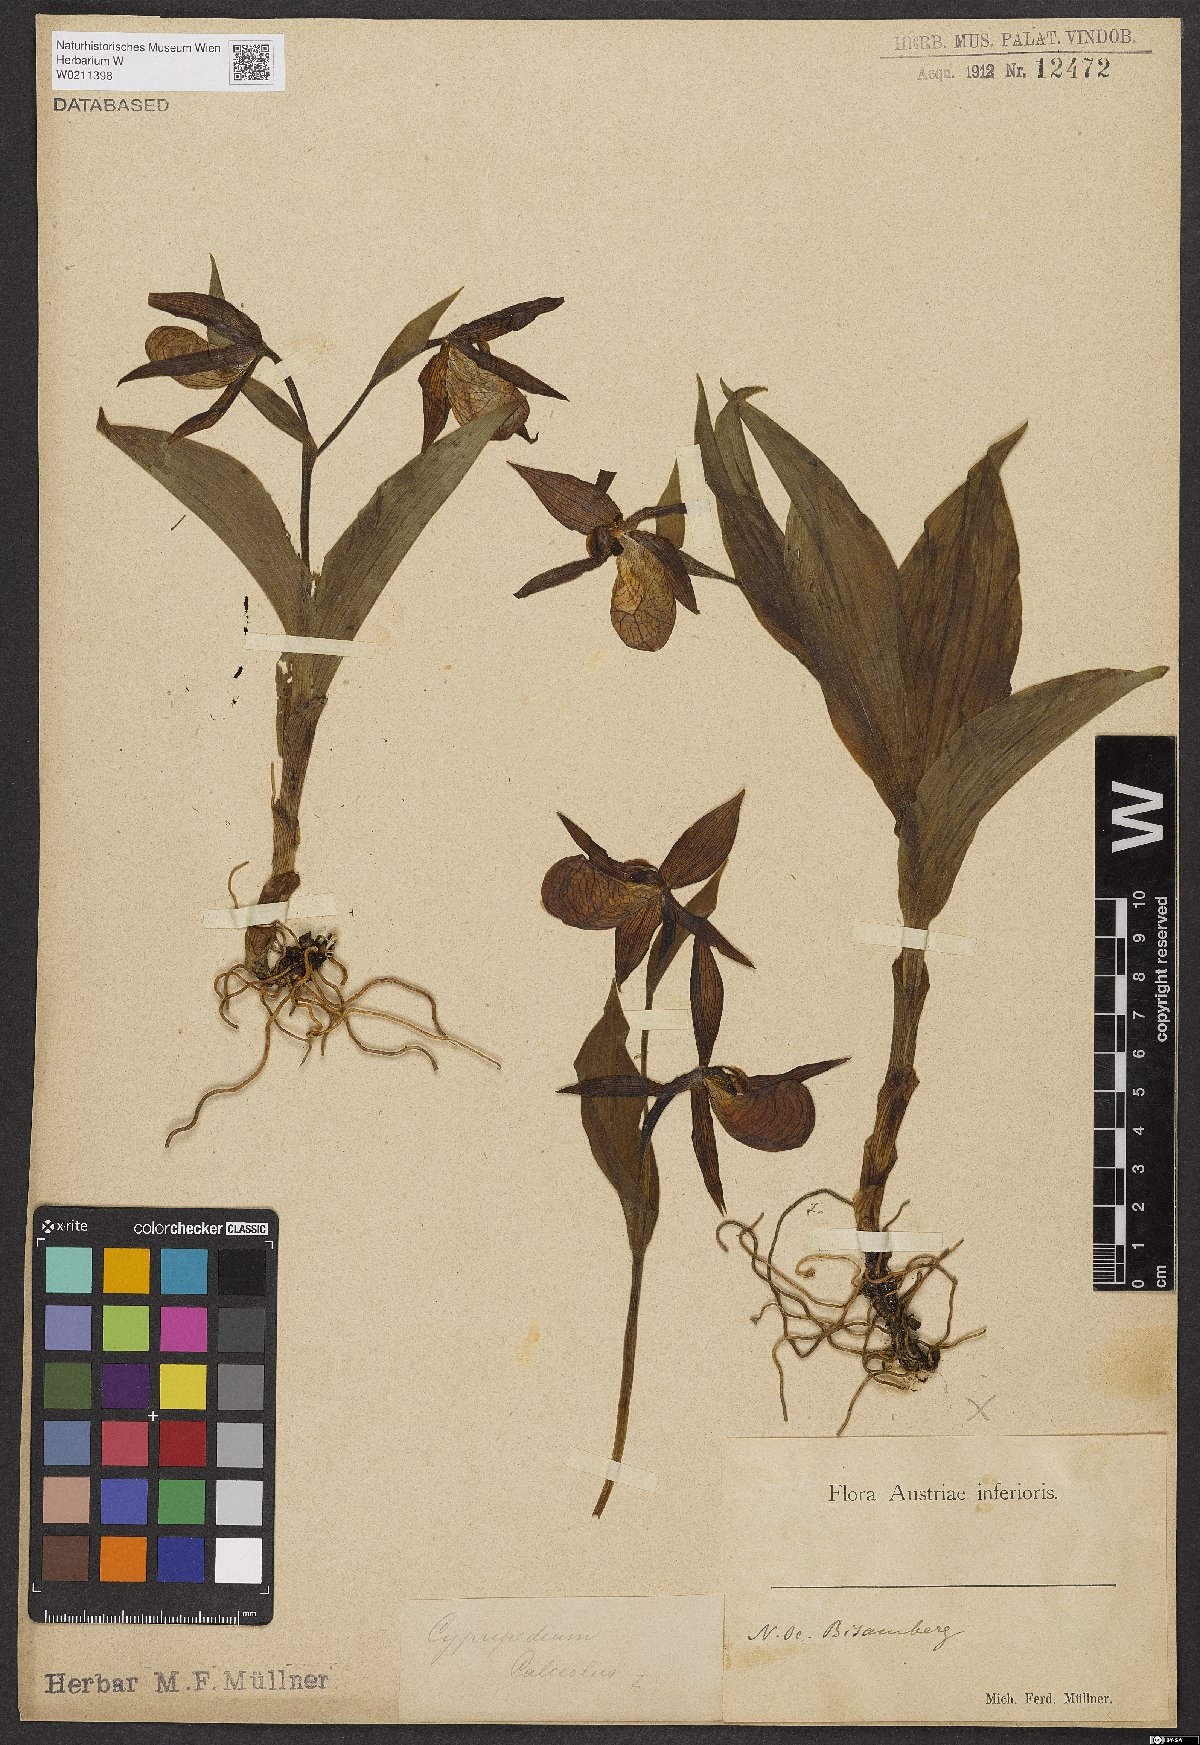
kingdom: Plantae
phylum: Tracheophyta
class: Liliopsida
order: Asparagales
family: Orchidaceae
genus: Cypripedium
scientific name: Cypripedium calceolus
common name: Lady's-slipper
